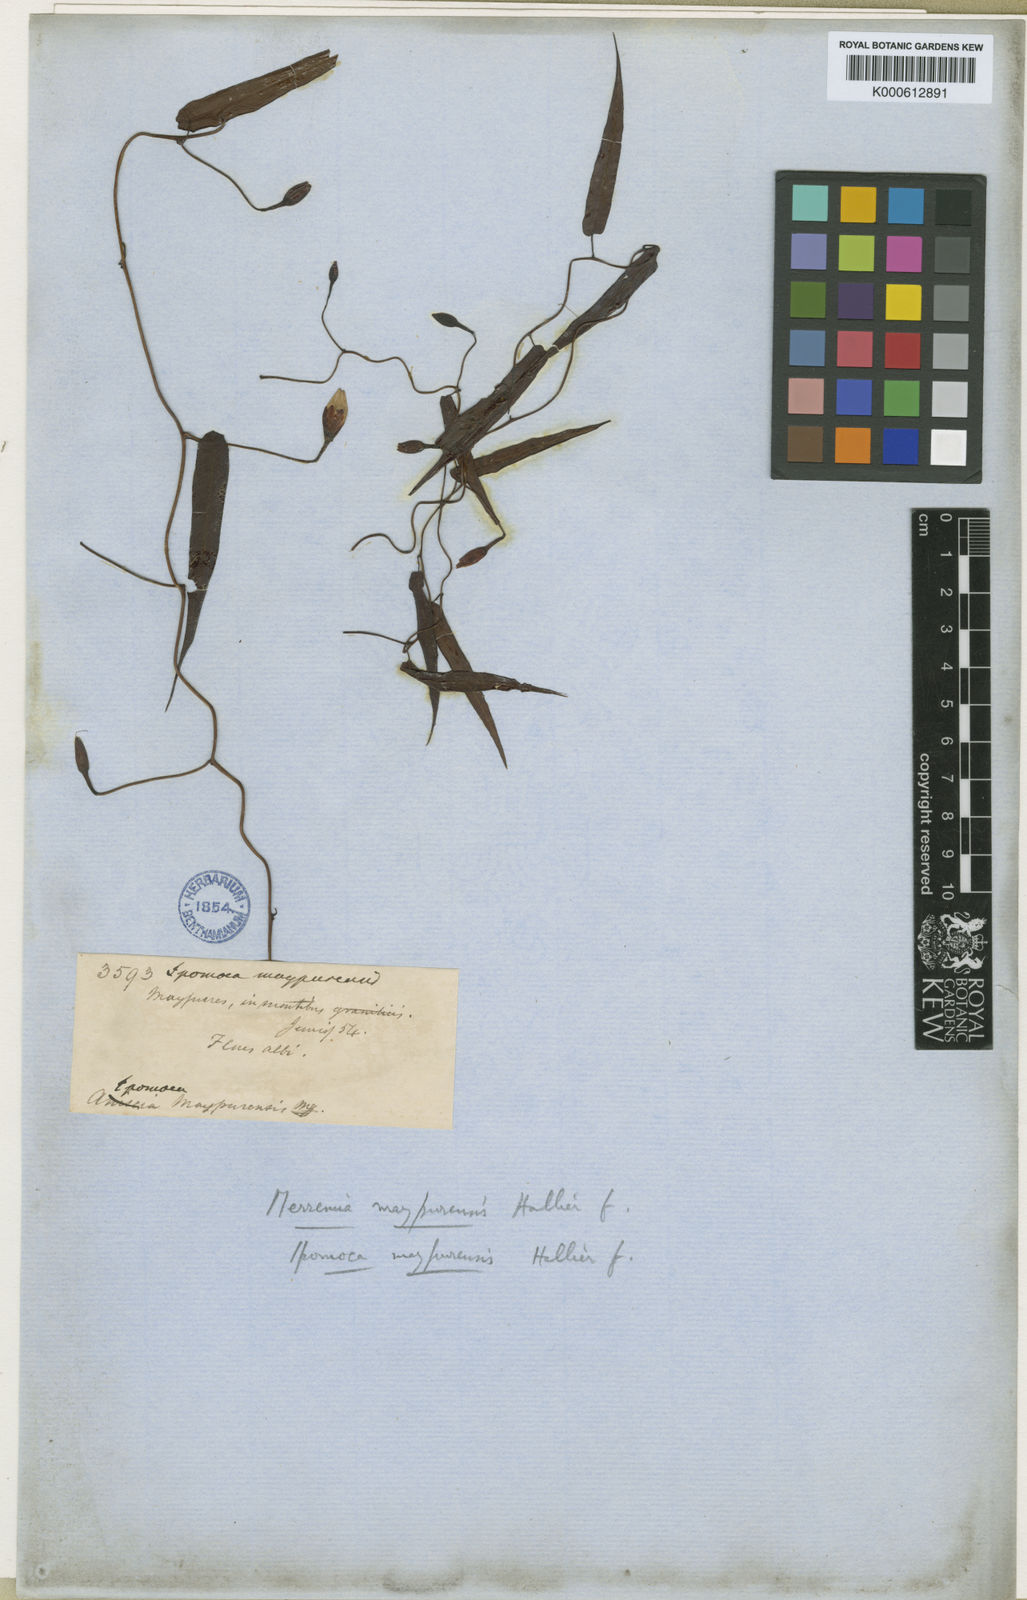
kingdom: Plantae
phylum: Tracheophyta
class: Magnoliopsida
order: Solanales
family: Convolvulaceae
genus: Operculina
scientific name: Operculina maypurensis
